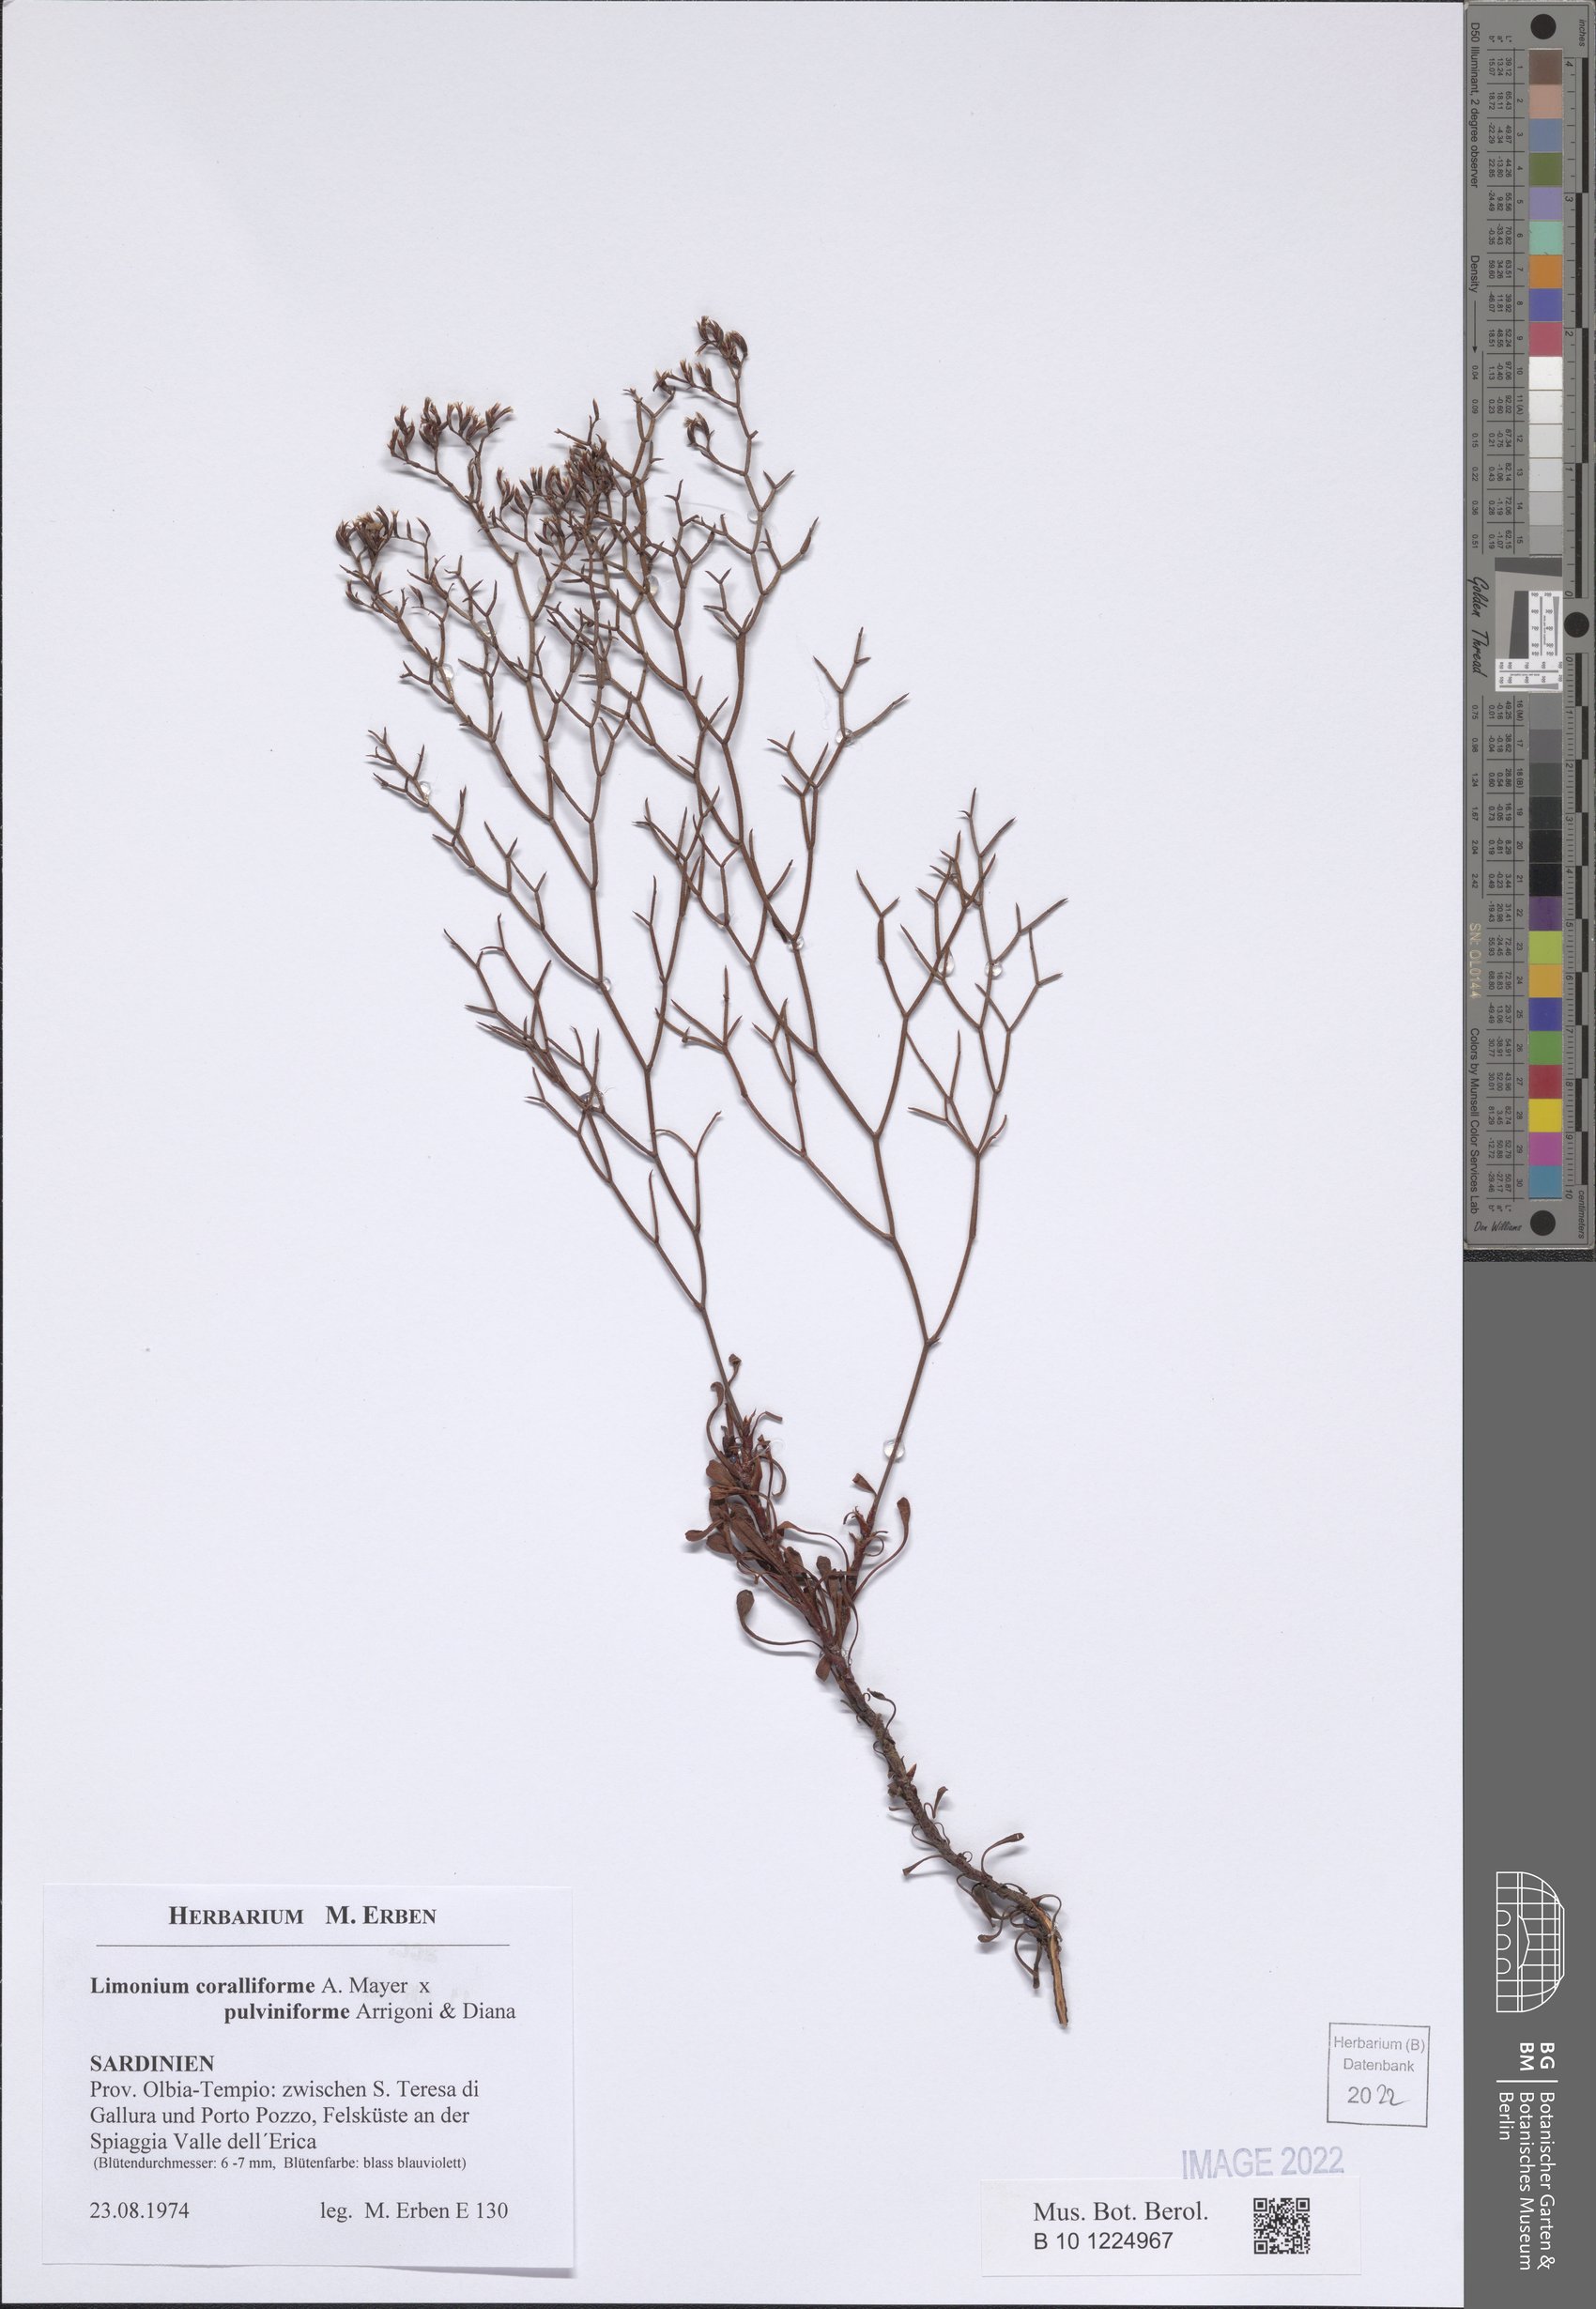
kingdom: Plantae
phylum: Tracheophyta
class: Magnoliopsida
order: Caryophyllales
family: Plumbaginaceae
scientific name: Plumbaginaceae
